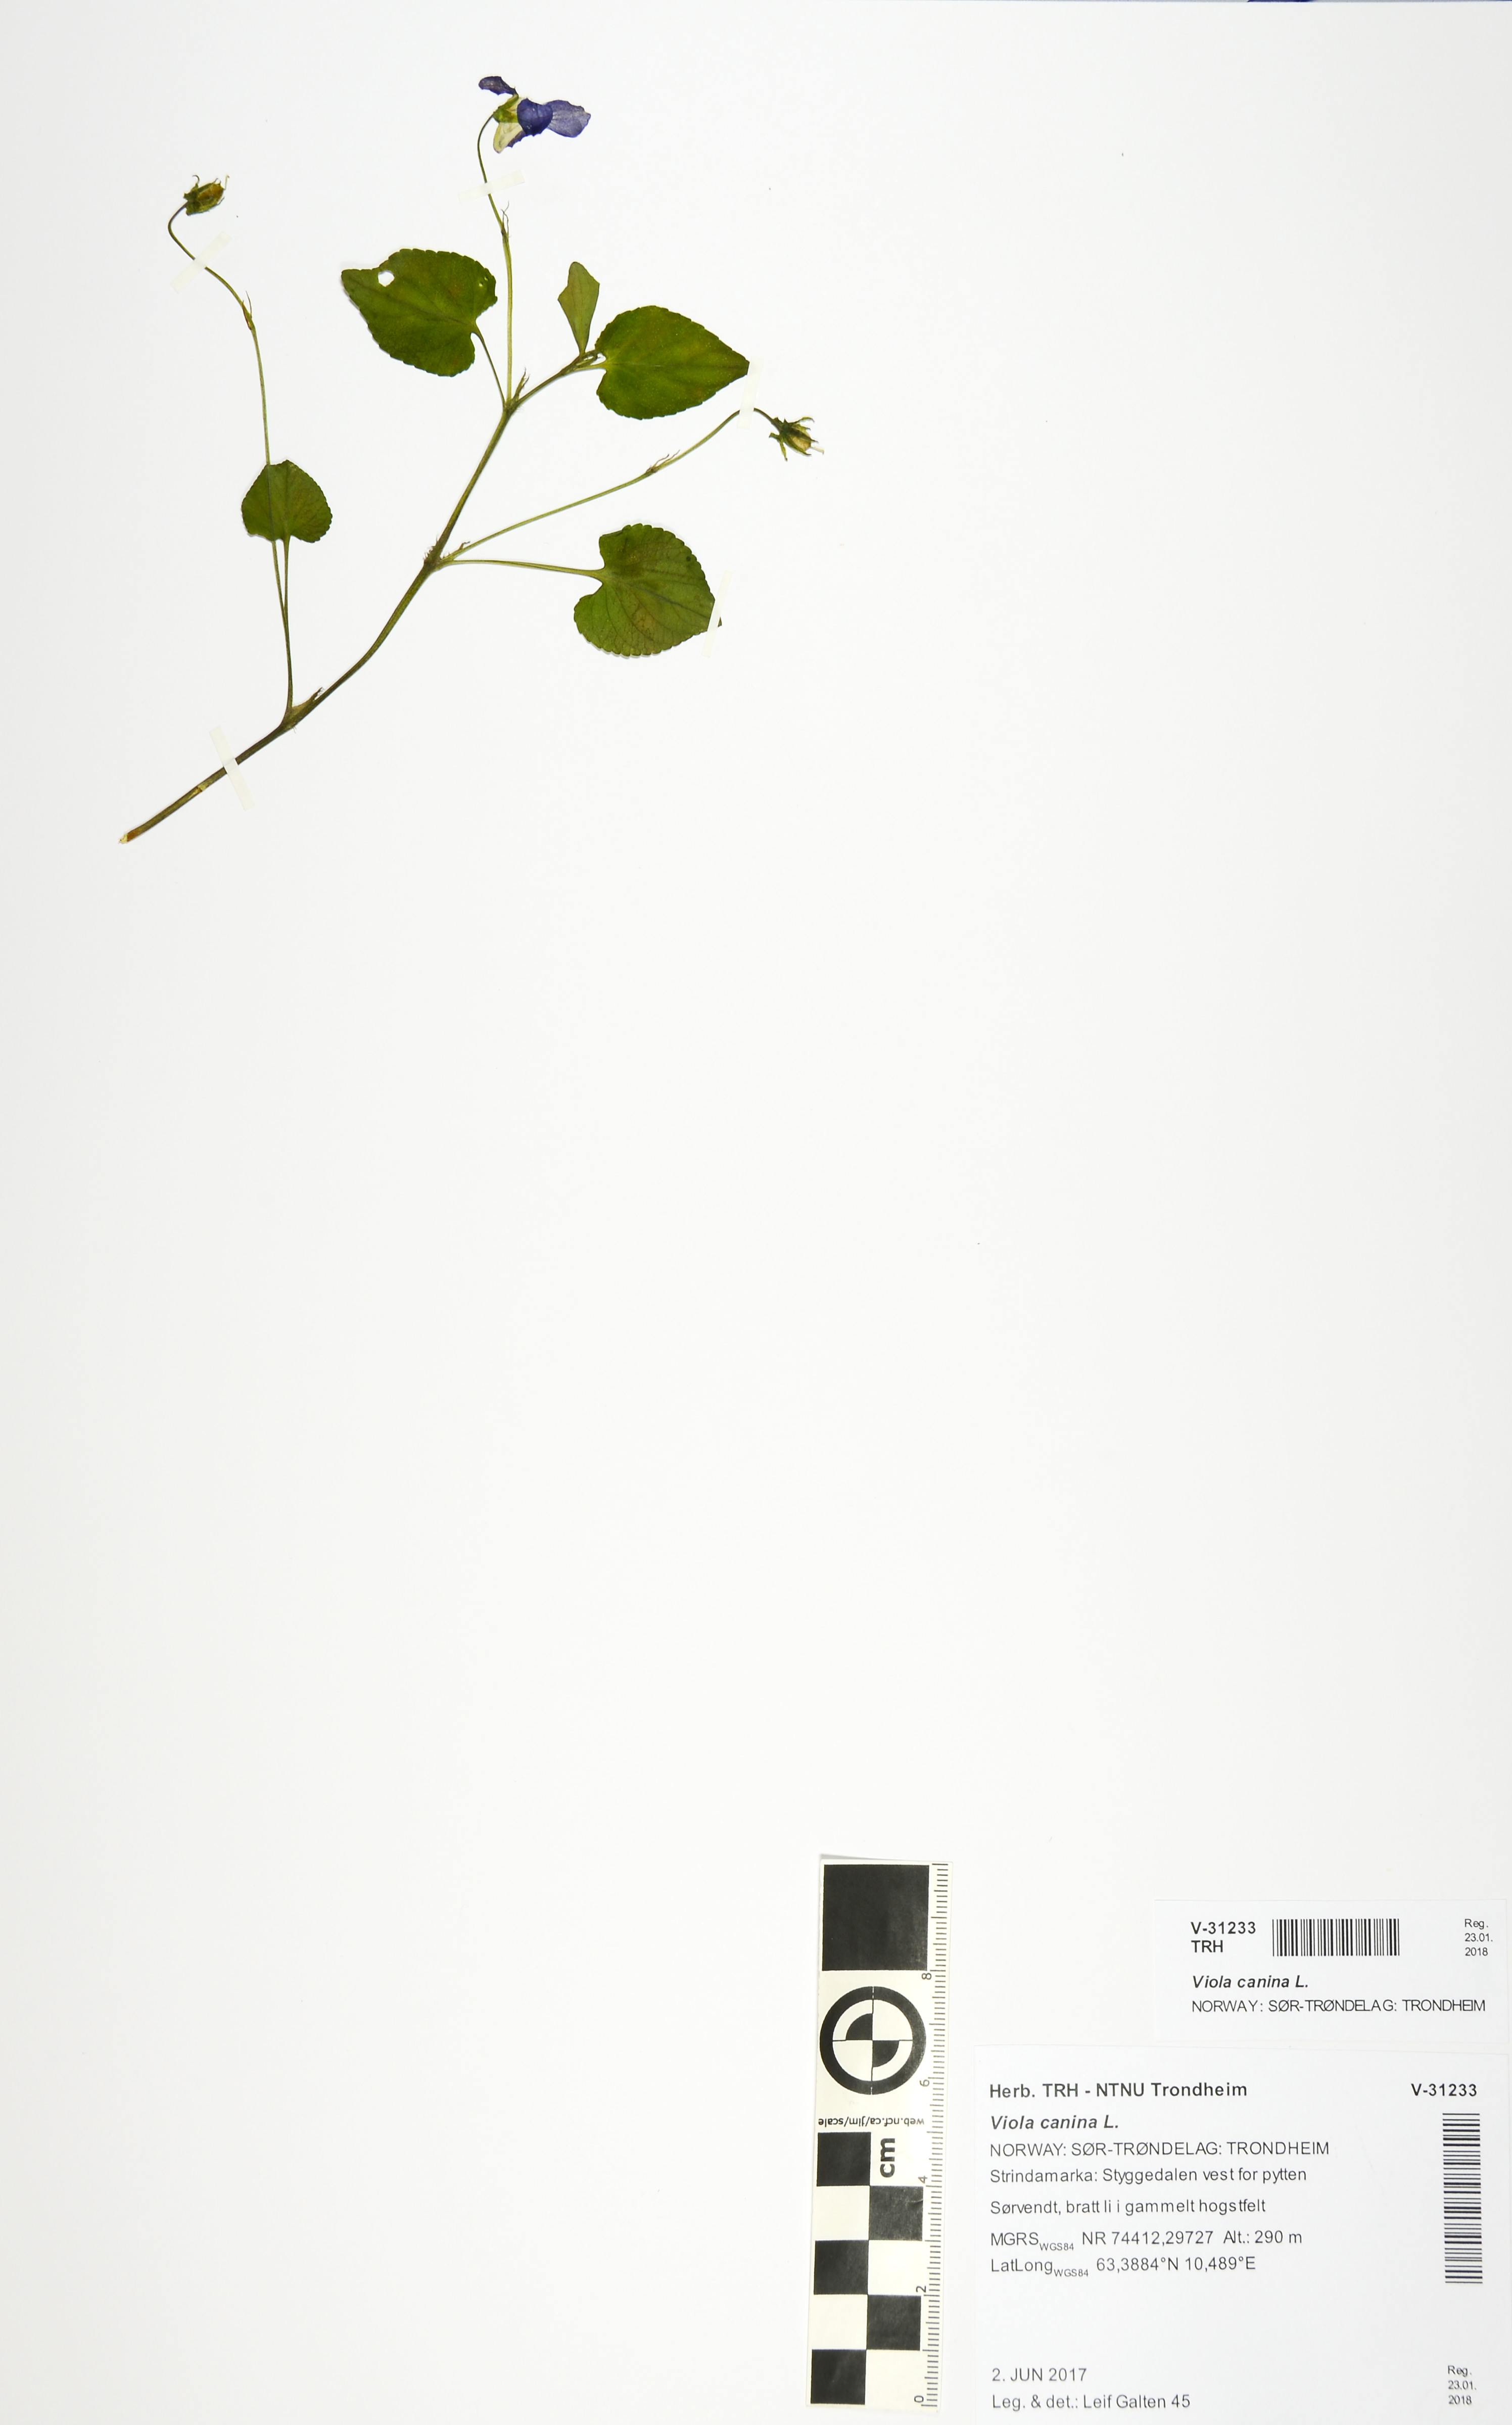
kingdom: Plantae
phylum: Tracheophyta
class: Magnoliopsida
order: Malpighiales
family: Violaceae
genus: Viola
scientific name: Viola canina
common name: Heath dog-violet
